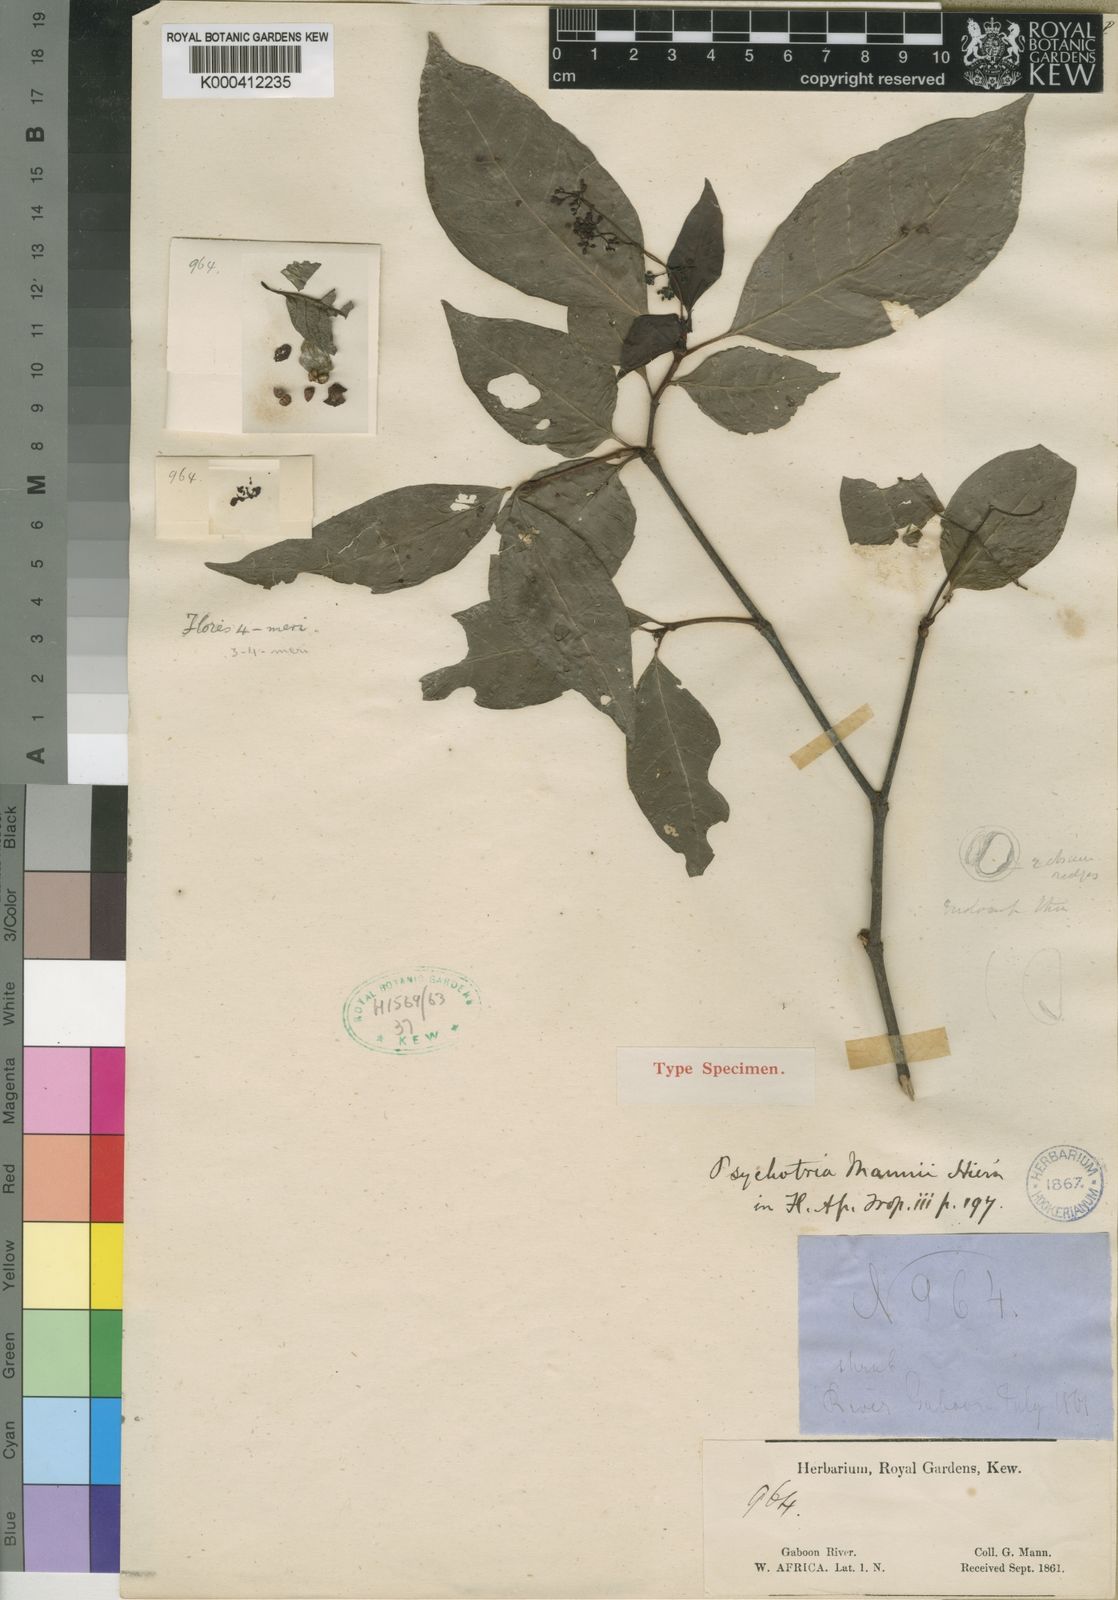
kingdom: Plantae
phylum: Tracheophyta
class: Magnoliopsida
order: Gentianales
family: Rubiaceae
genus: Psychotria
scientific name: Psychotria mannii
